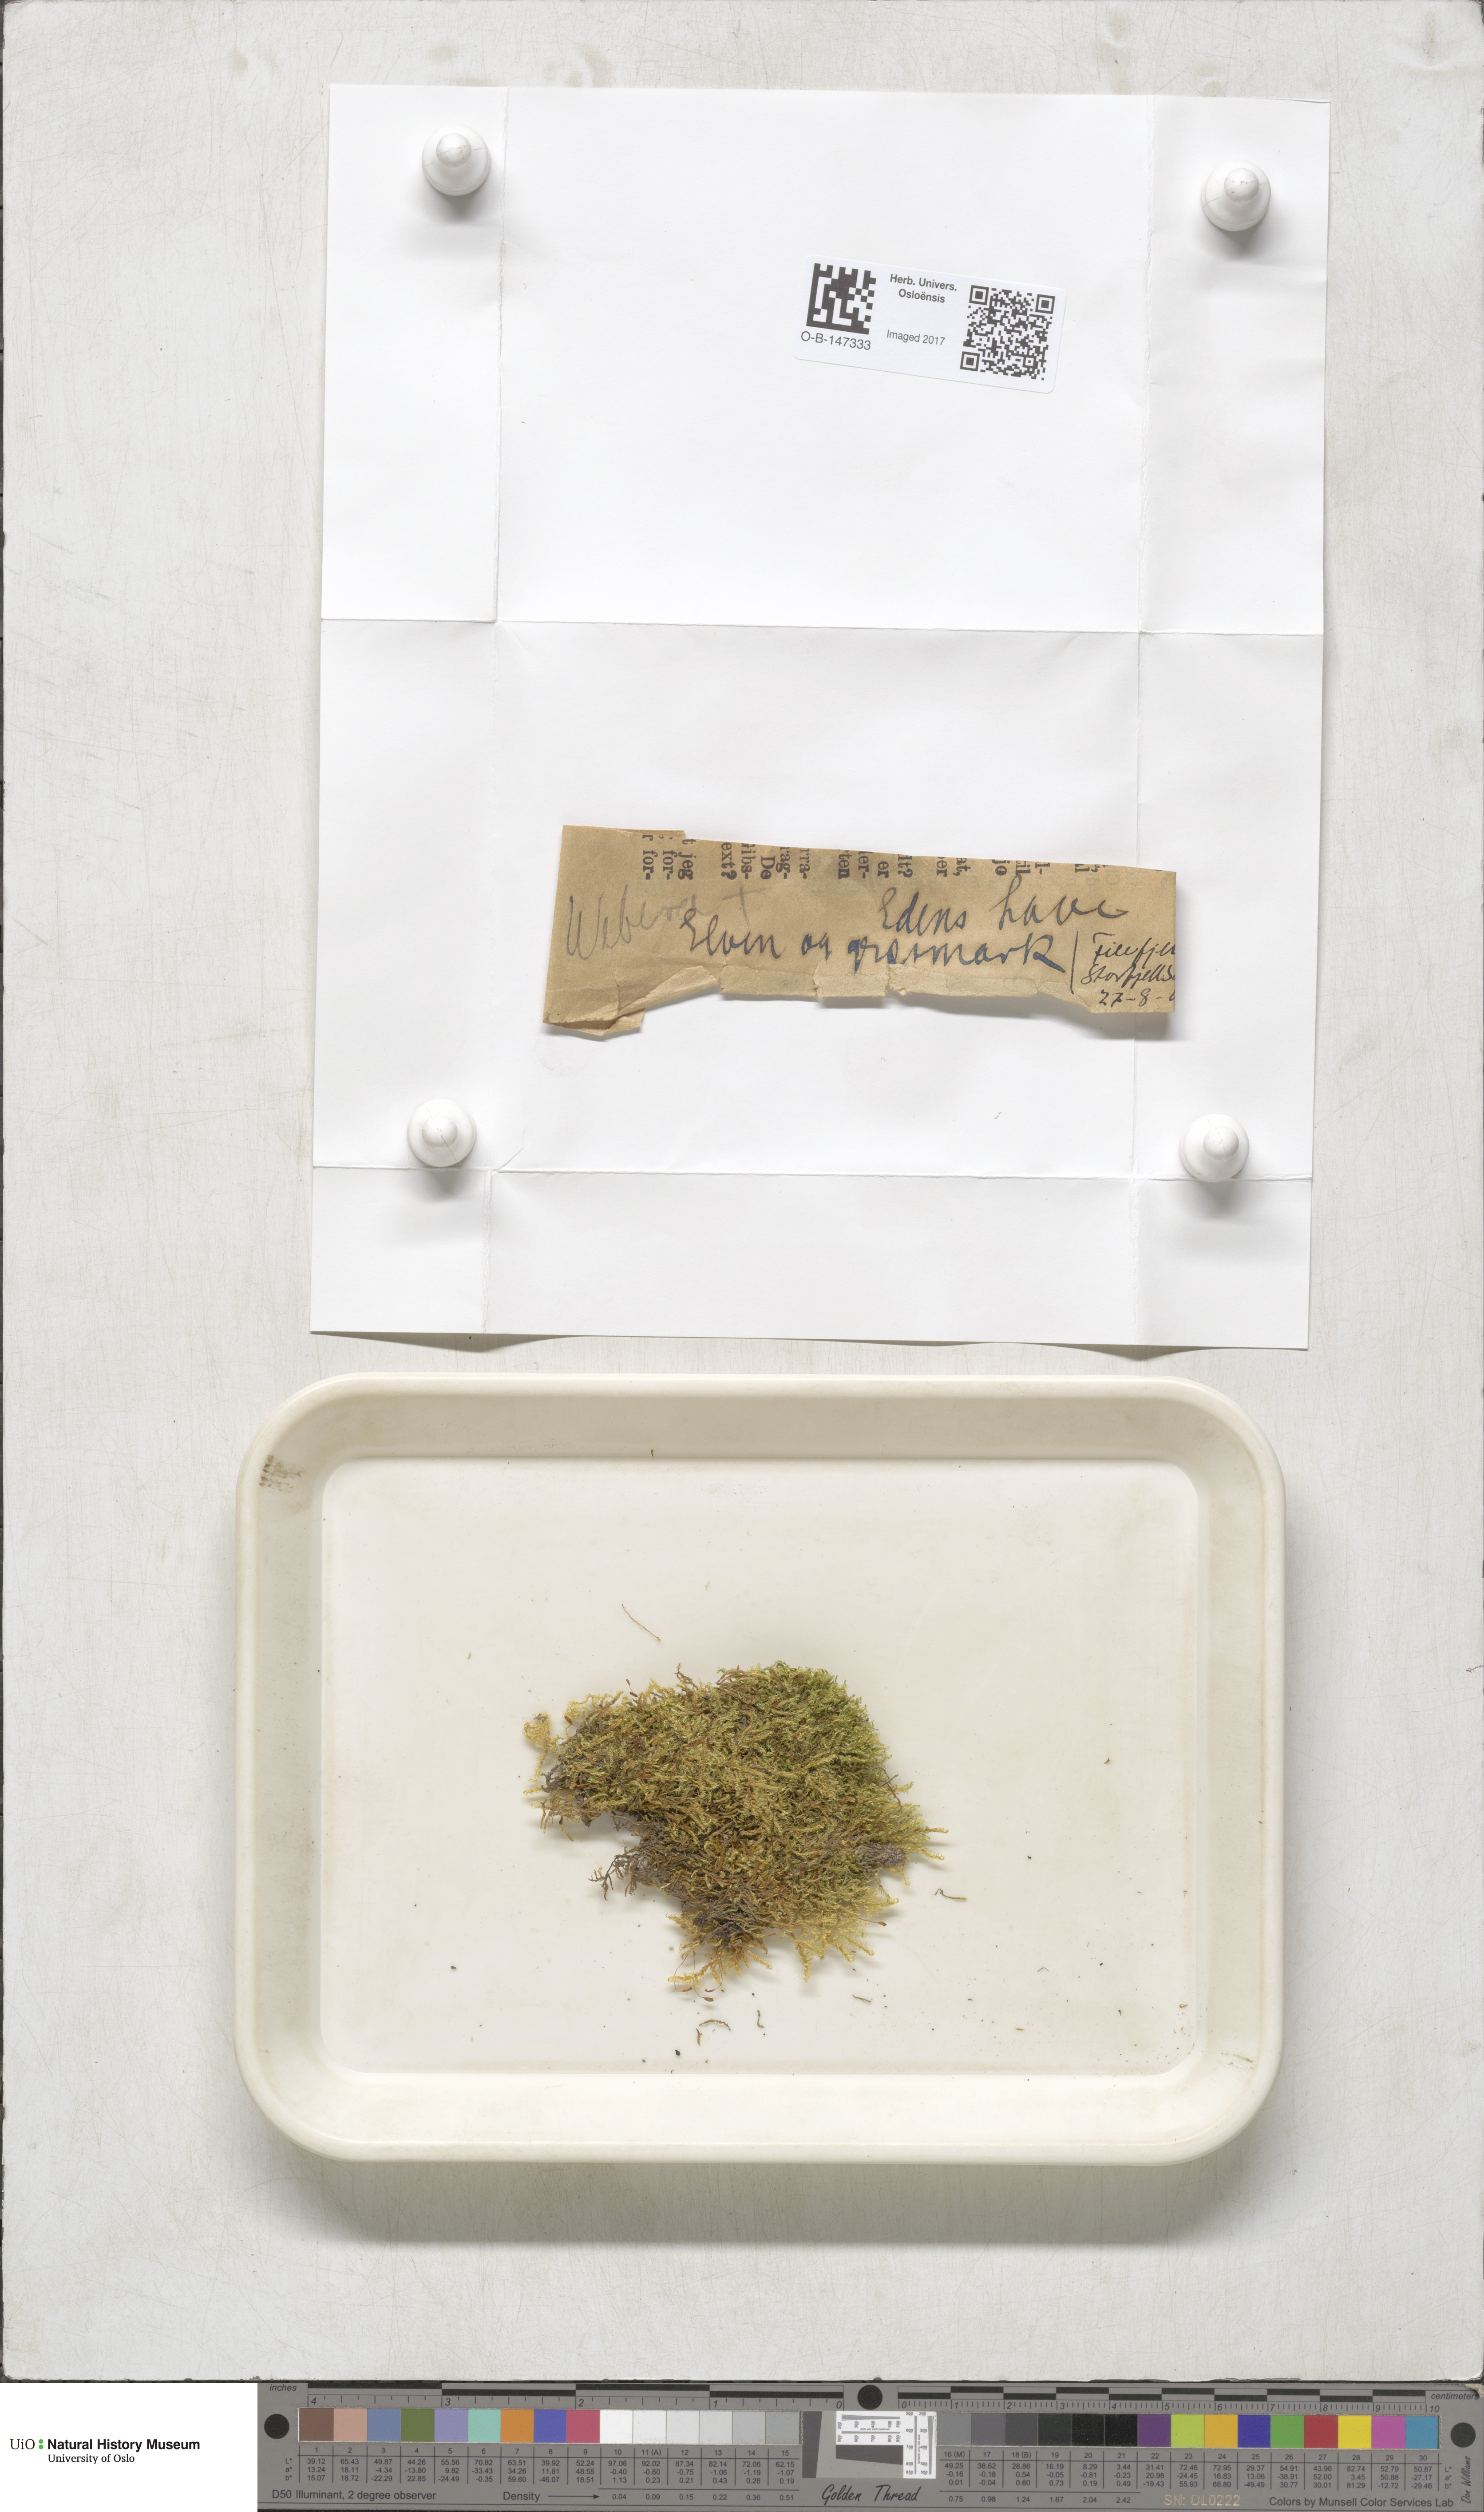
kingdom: Plantae
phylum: Bryophyta
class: Bryopsida
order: Bryales
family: Mniaceae
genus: Pohlia
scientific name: Pohlia
